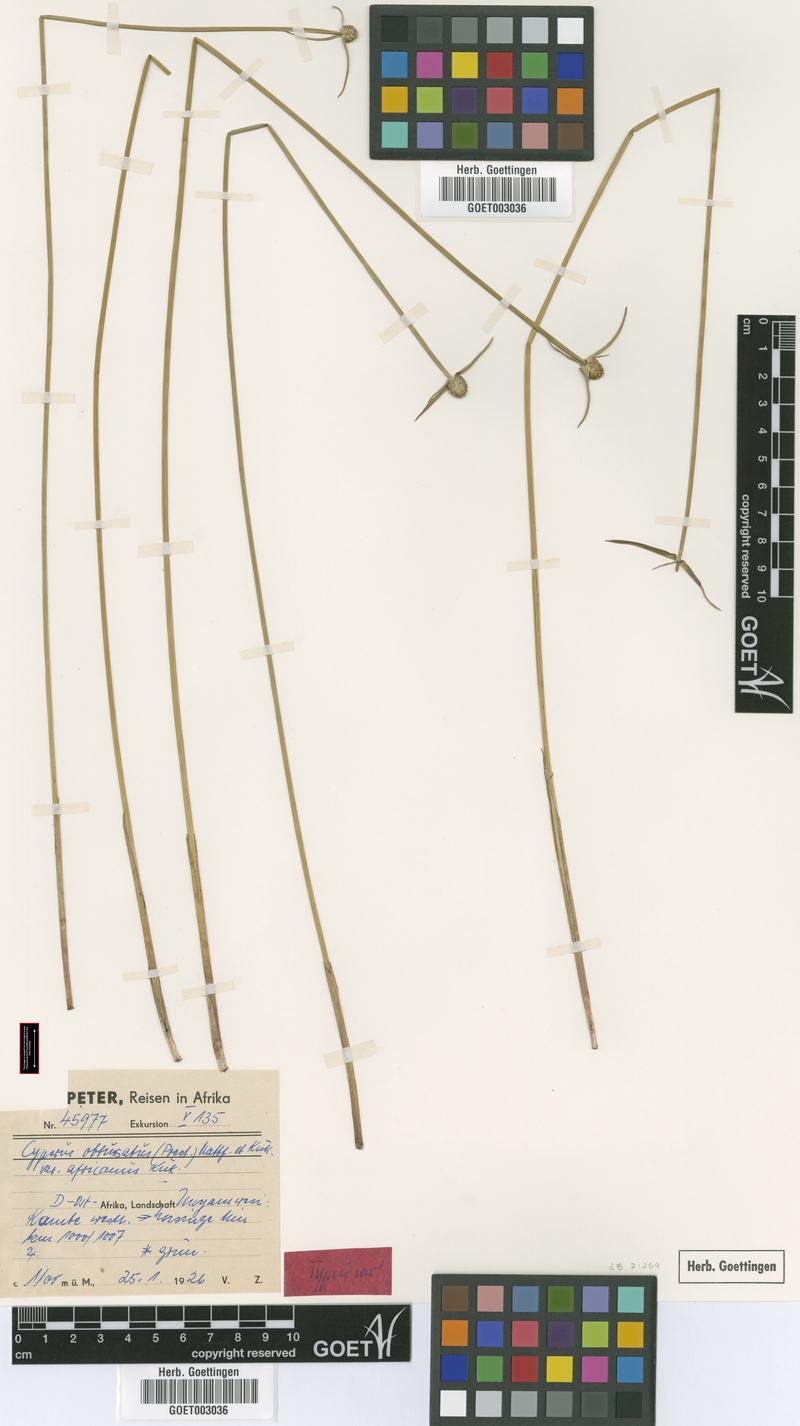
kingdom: Plantae
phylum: Tracheophyta
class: Liliopsida
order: Poales
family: Cyperaceae
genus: Cyperus
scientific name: Cyperus obtusatus
